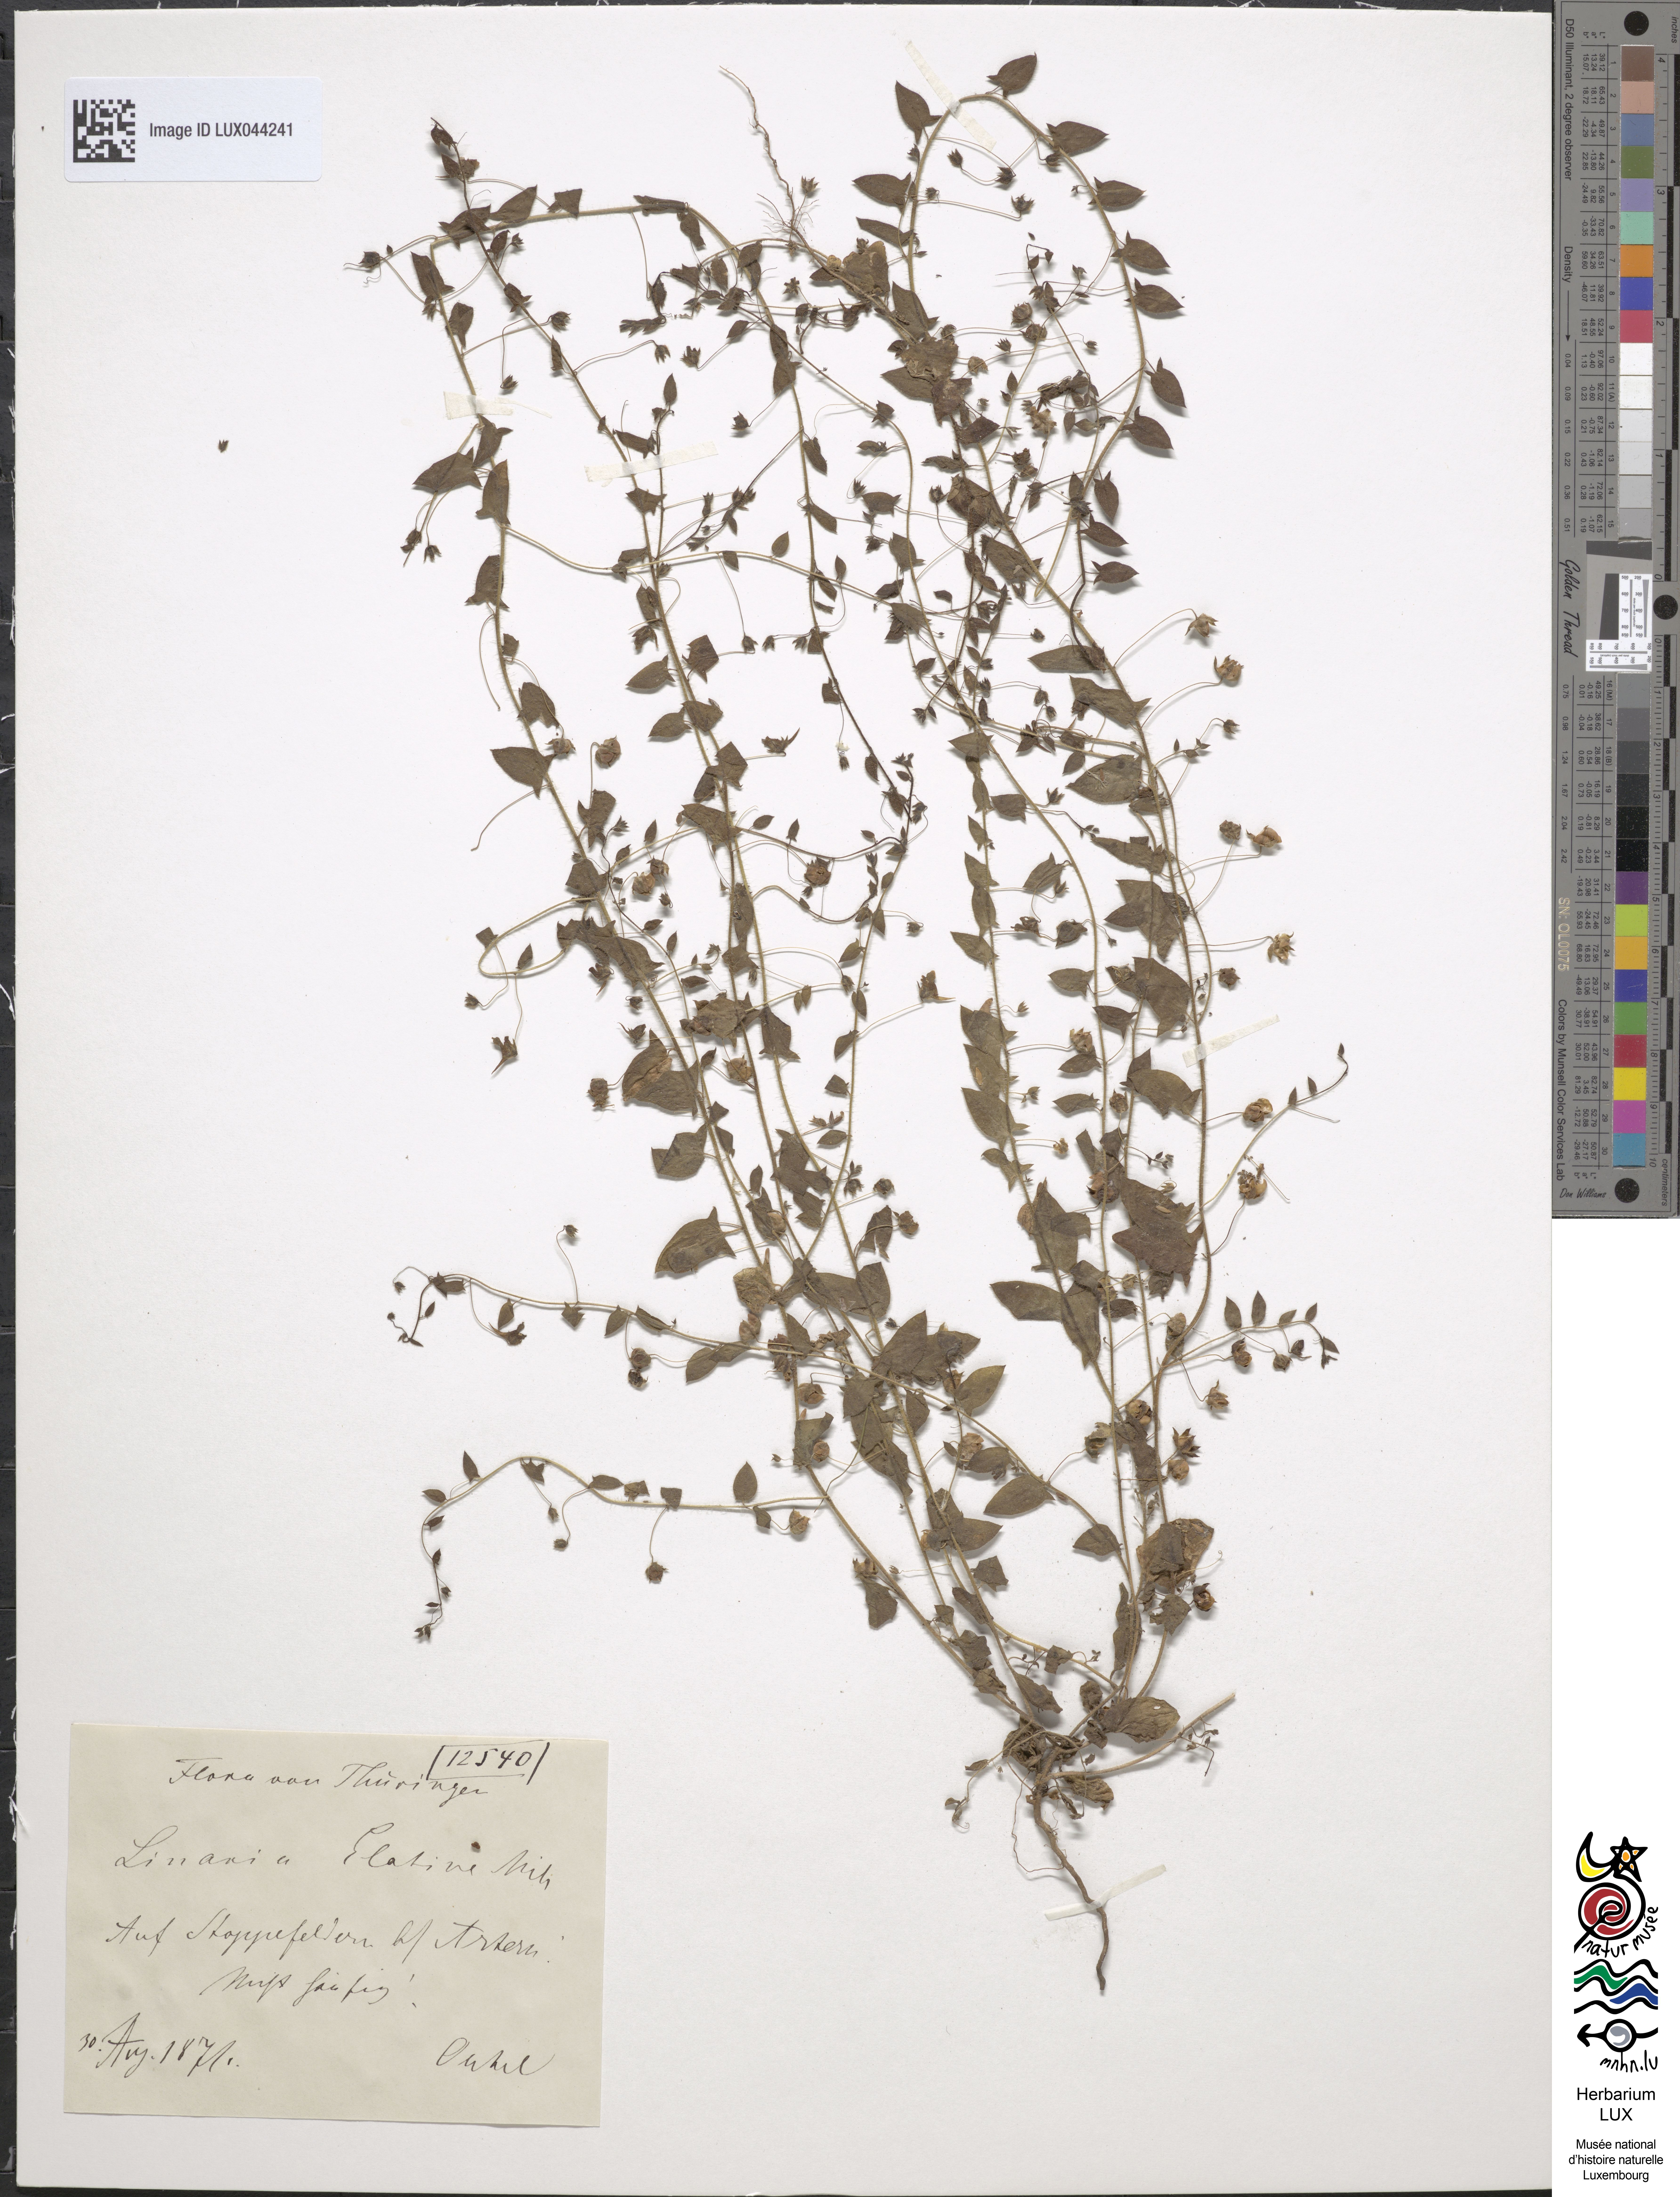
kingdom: Plantae
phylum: Tracheophyta
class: Magnoliopsida
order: Lamiales
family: Plantaginaceae
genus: Kickxia
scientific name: Kickxia elatine
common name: Sharp-leaved fluellen
